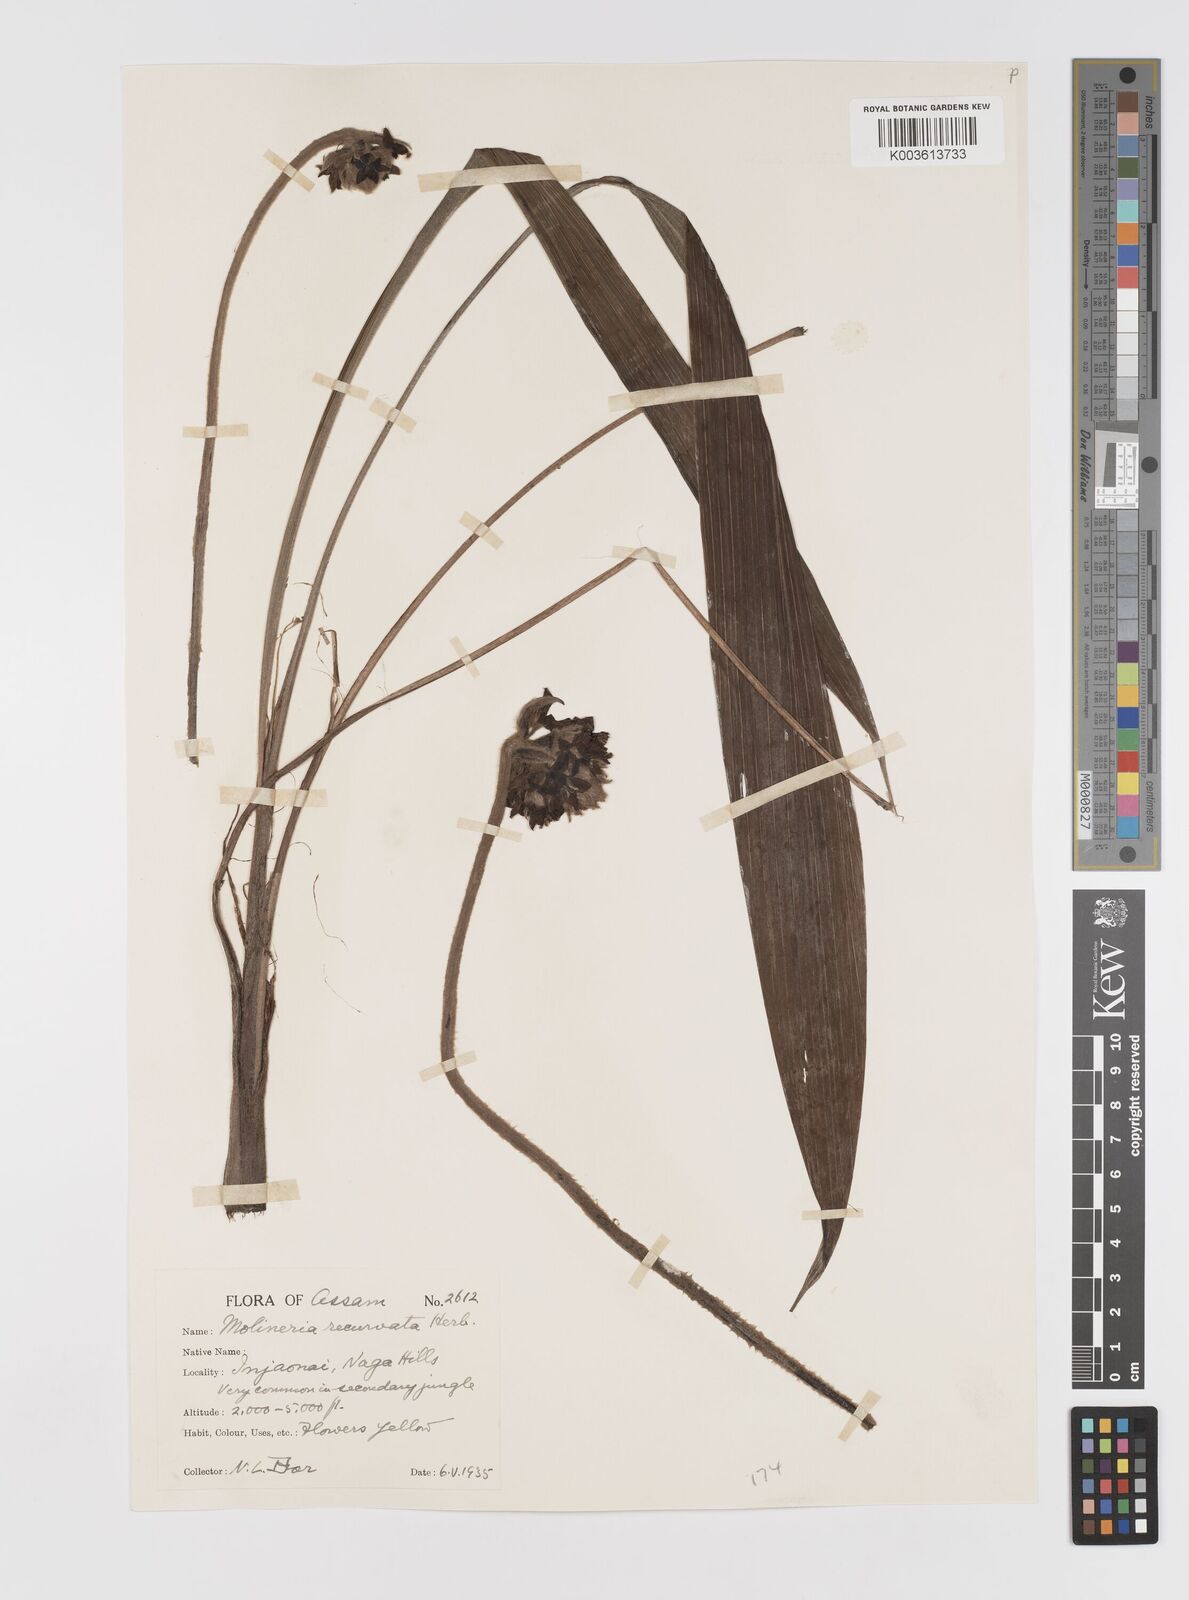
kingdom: Plantae
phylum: Tracheophyta
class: Liliopsida
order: Asparagales
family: Hypoxidaceae
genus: Curculigo
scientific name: Curculigo capitulata
